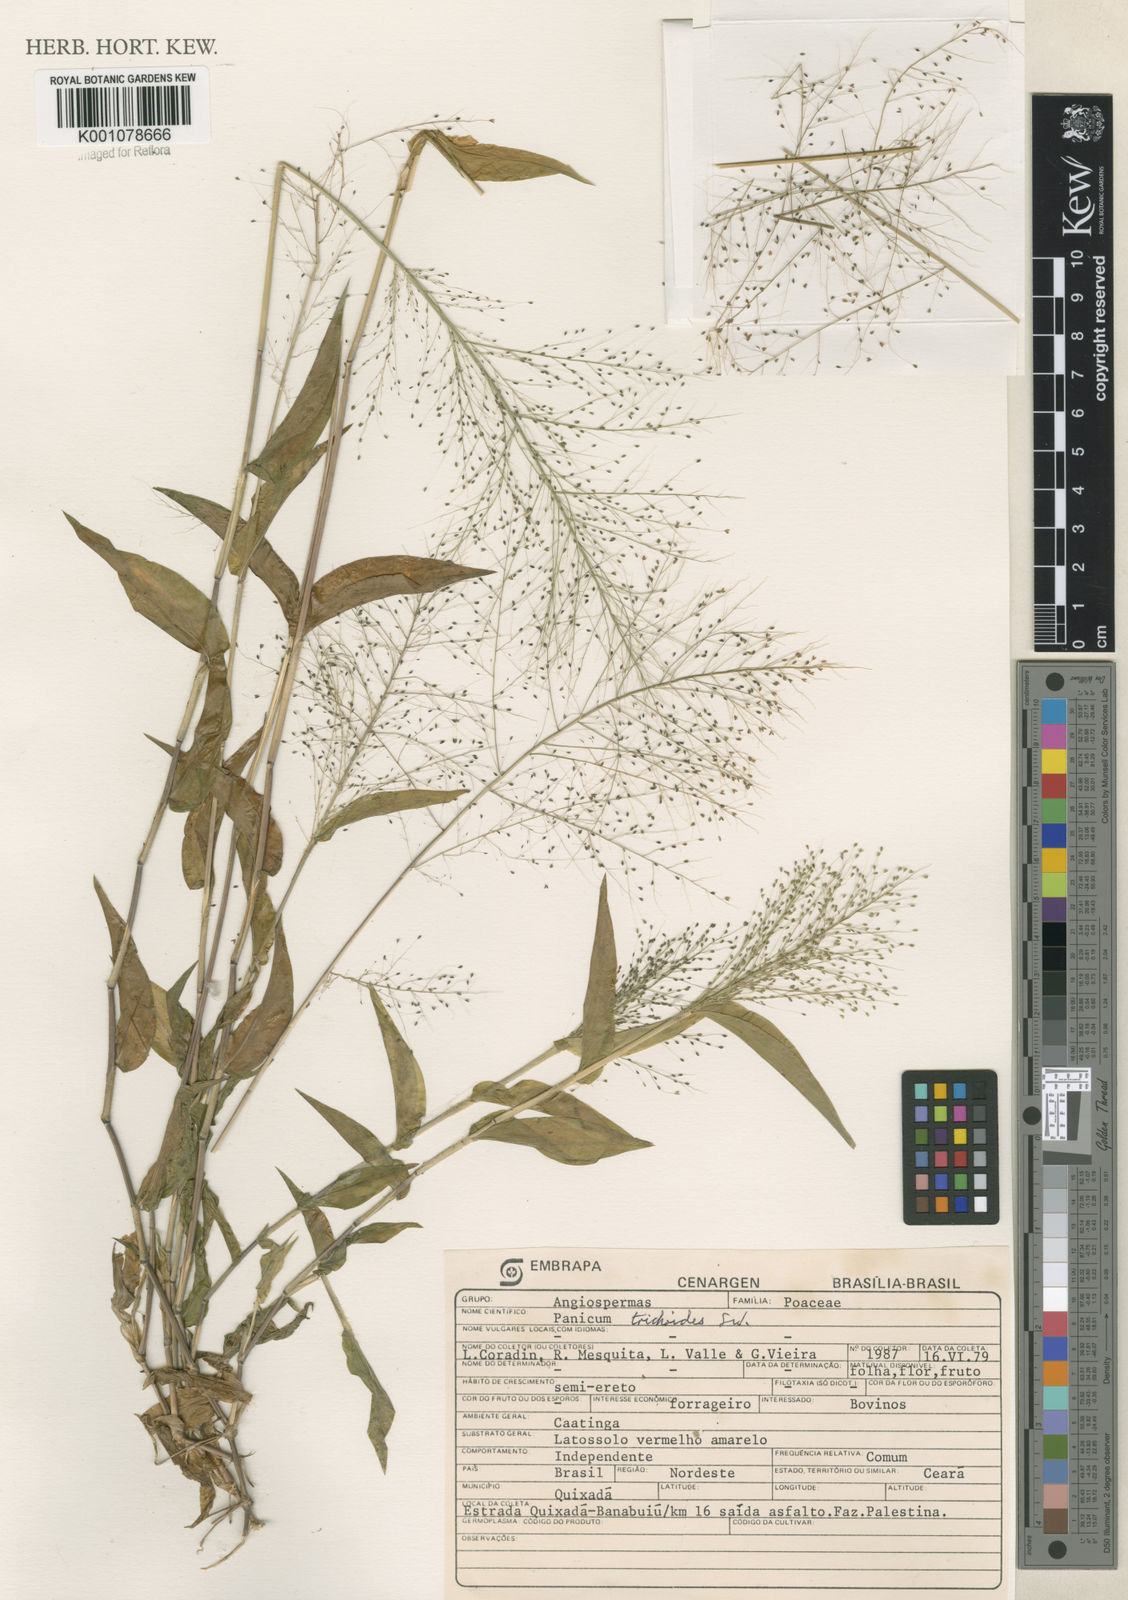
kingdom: Plantae
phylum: Tracheophyta
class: Liliopsida
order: Poales
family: Poaceae
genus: Panicum
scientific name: Panicum trichoides
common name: Tickle grass
